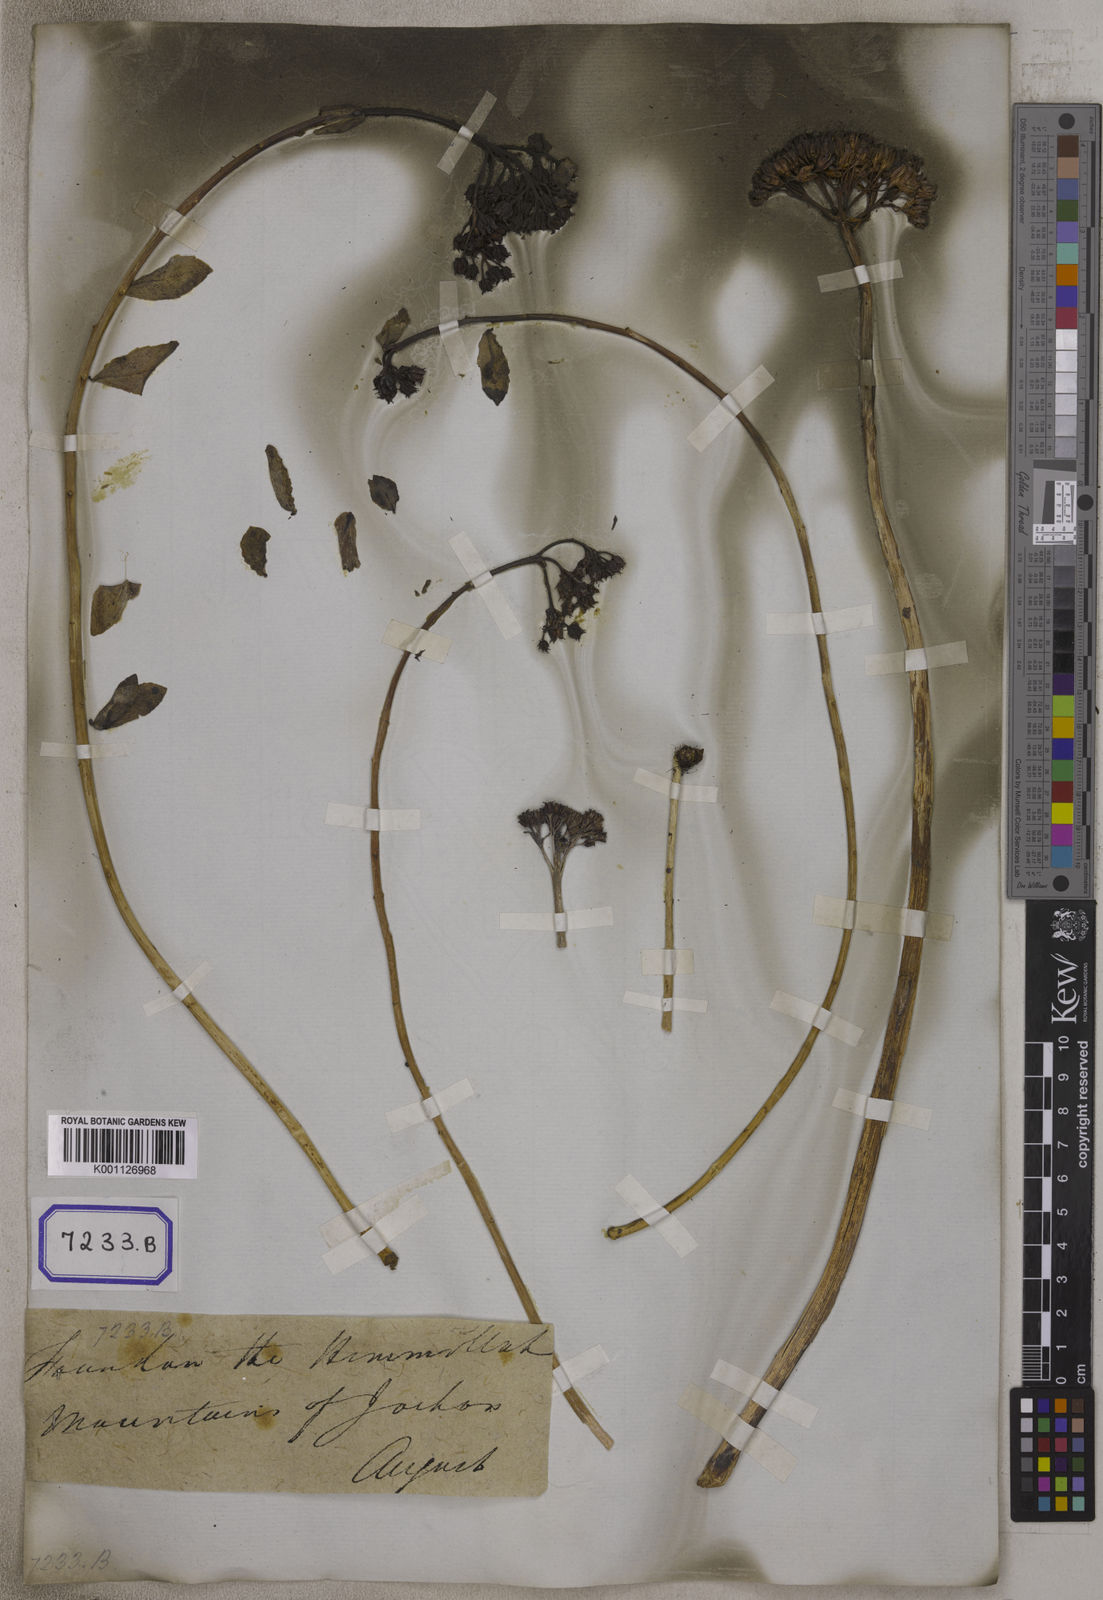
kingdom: Plantae
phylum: Tracheophyta
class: Magnoliopsida
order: Saxifragales
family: Crassulaceae
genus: Sedum
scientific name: Sedum
